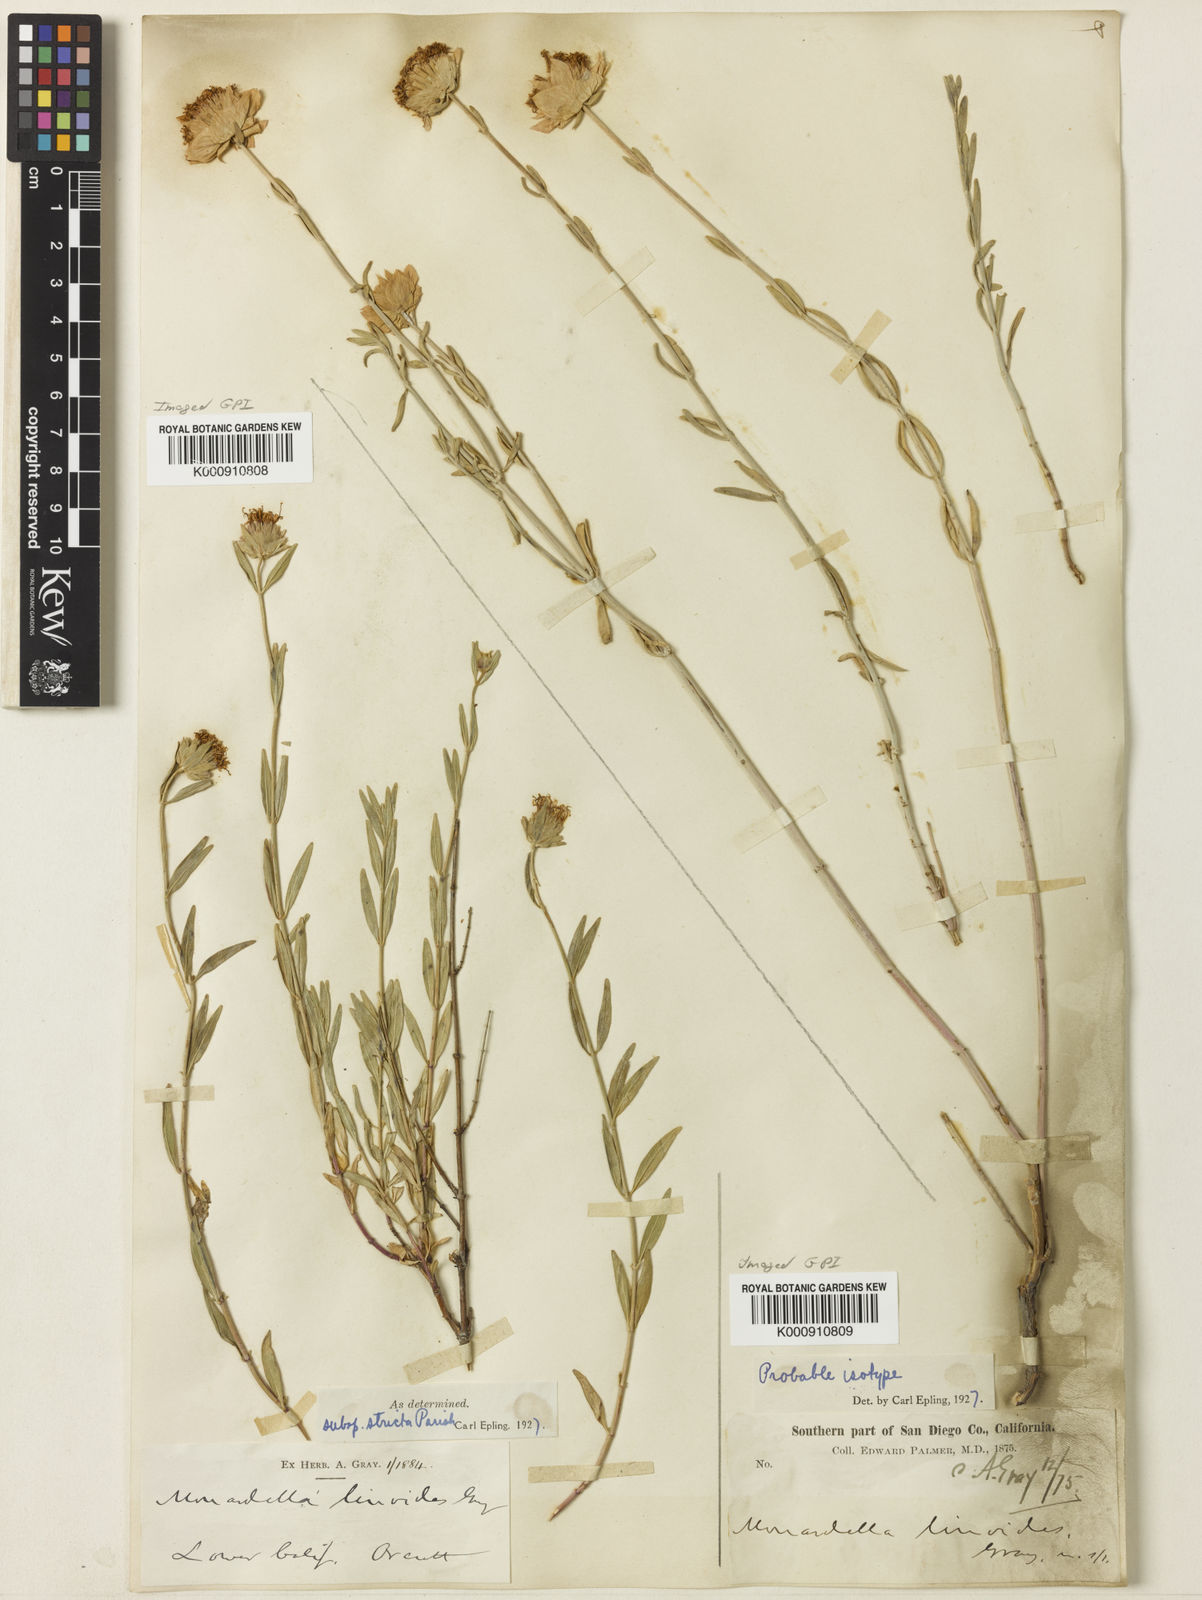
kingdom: Plantae
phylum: Tracheophyta
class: Magnoliopsida
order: Lamiales
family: Lamiaceae
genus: Monardella
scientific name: Monardella linoides
